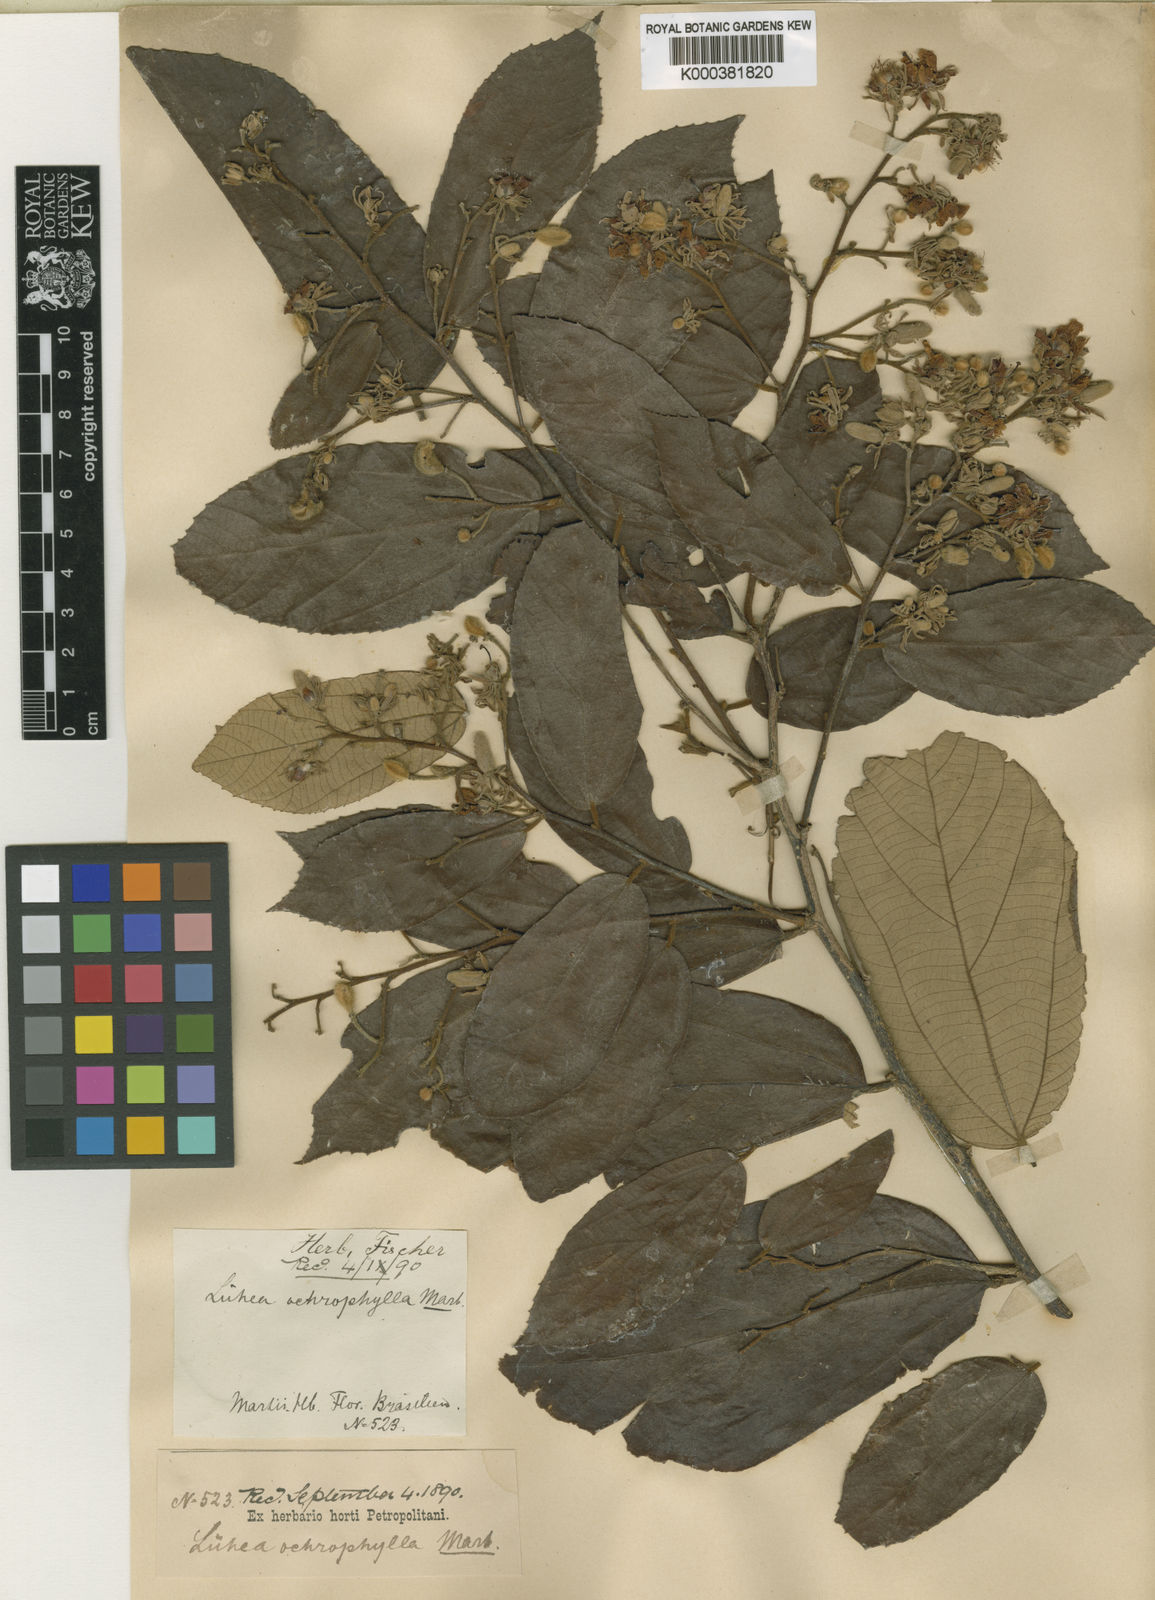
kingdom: Plantae
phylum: Tracheophyta
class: Magnoliopsida
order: Malvales
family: Malvaceae
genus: Luehea
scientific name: Luehea ochrophylla
